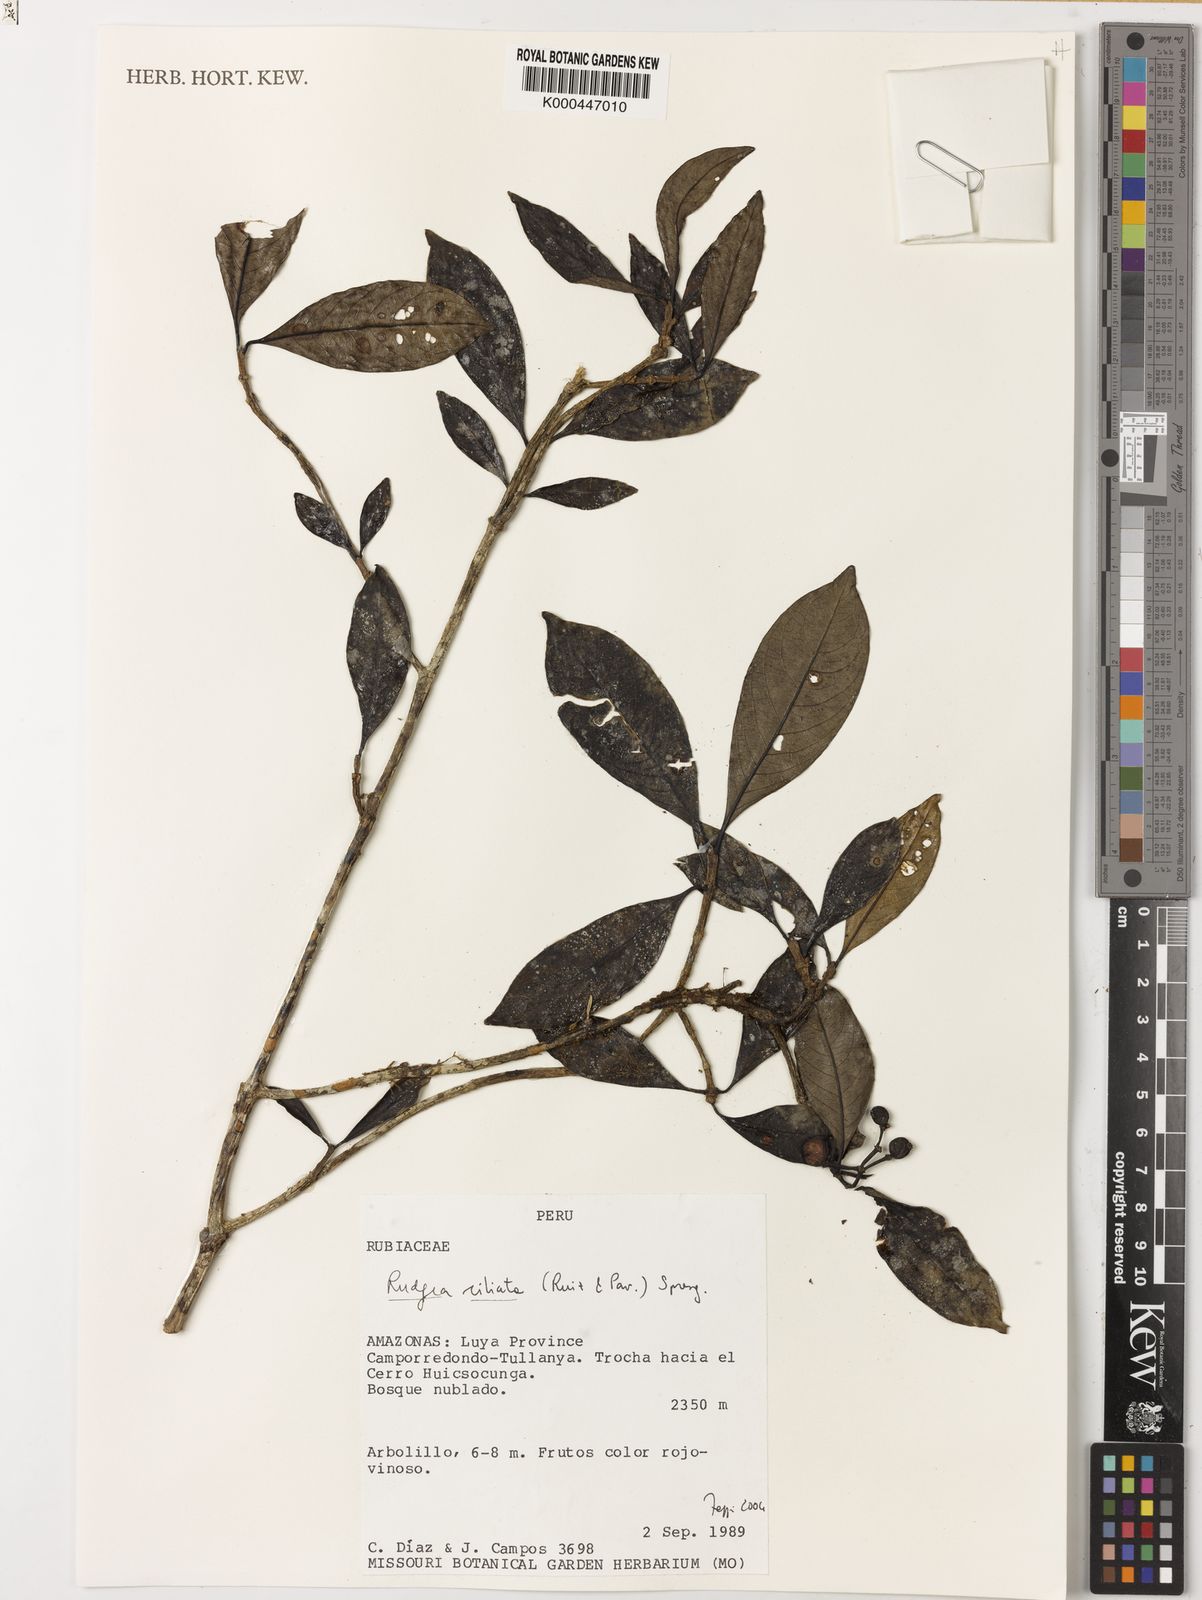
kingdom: Plantae
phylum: Tracheophyta
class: Magnoliopsida
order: Gentianales
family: Rubiaceae
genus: Rudgea
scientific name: Rudgea ciliata
